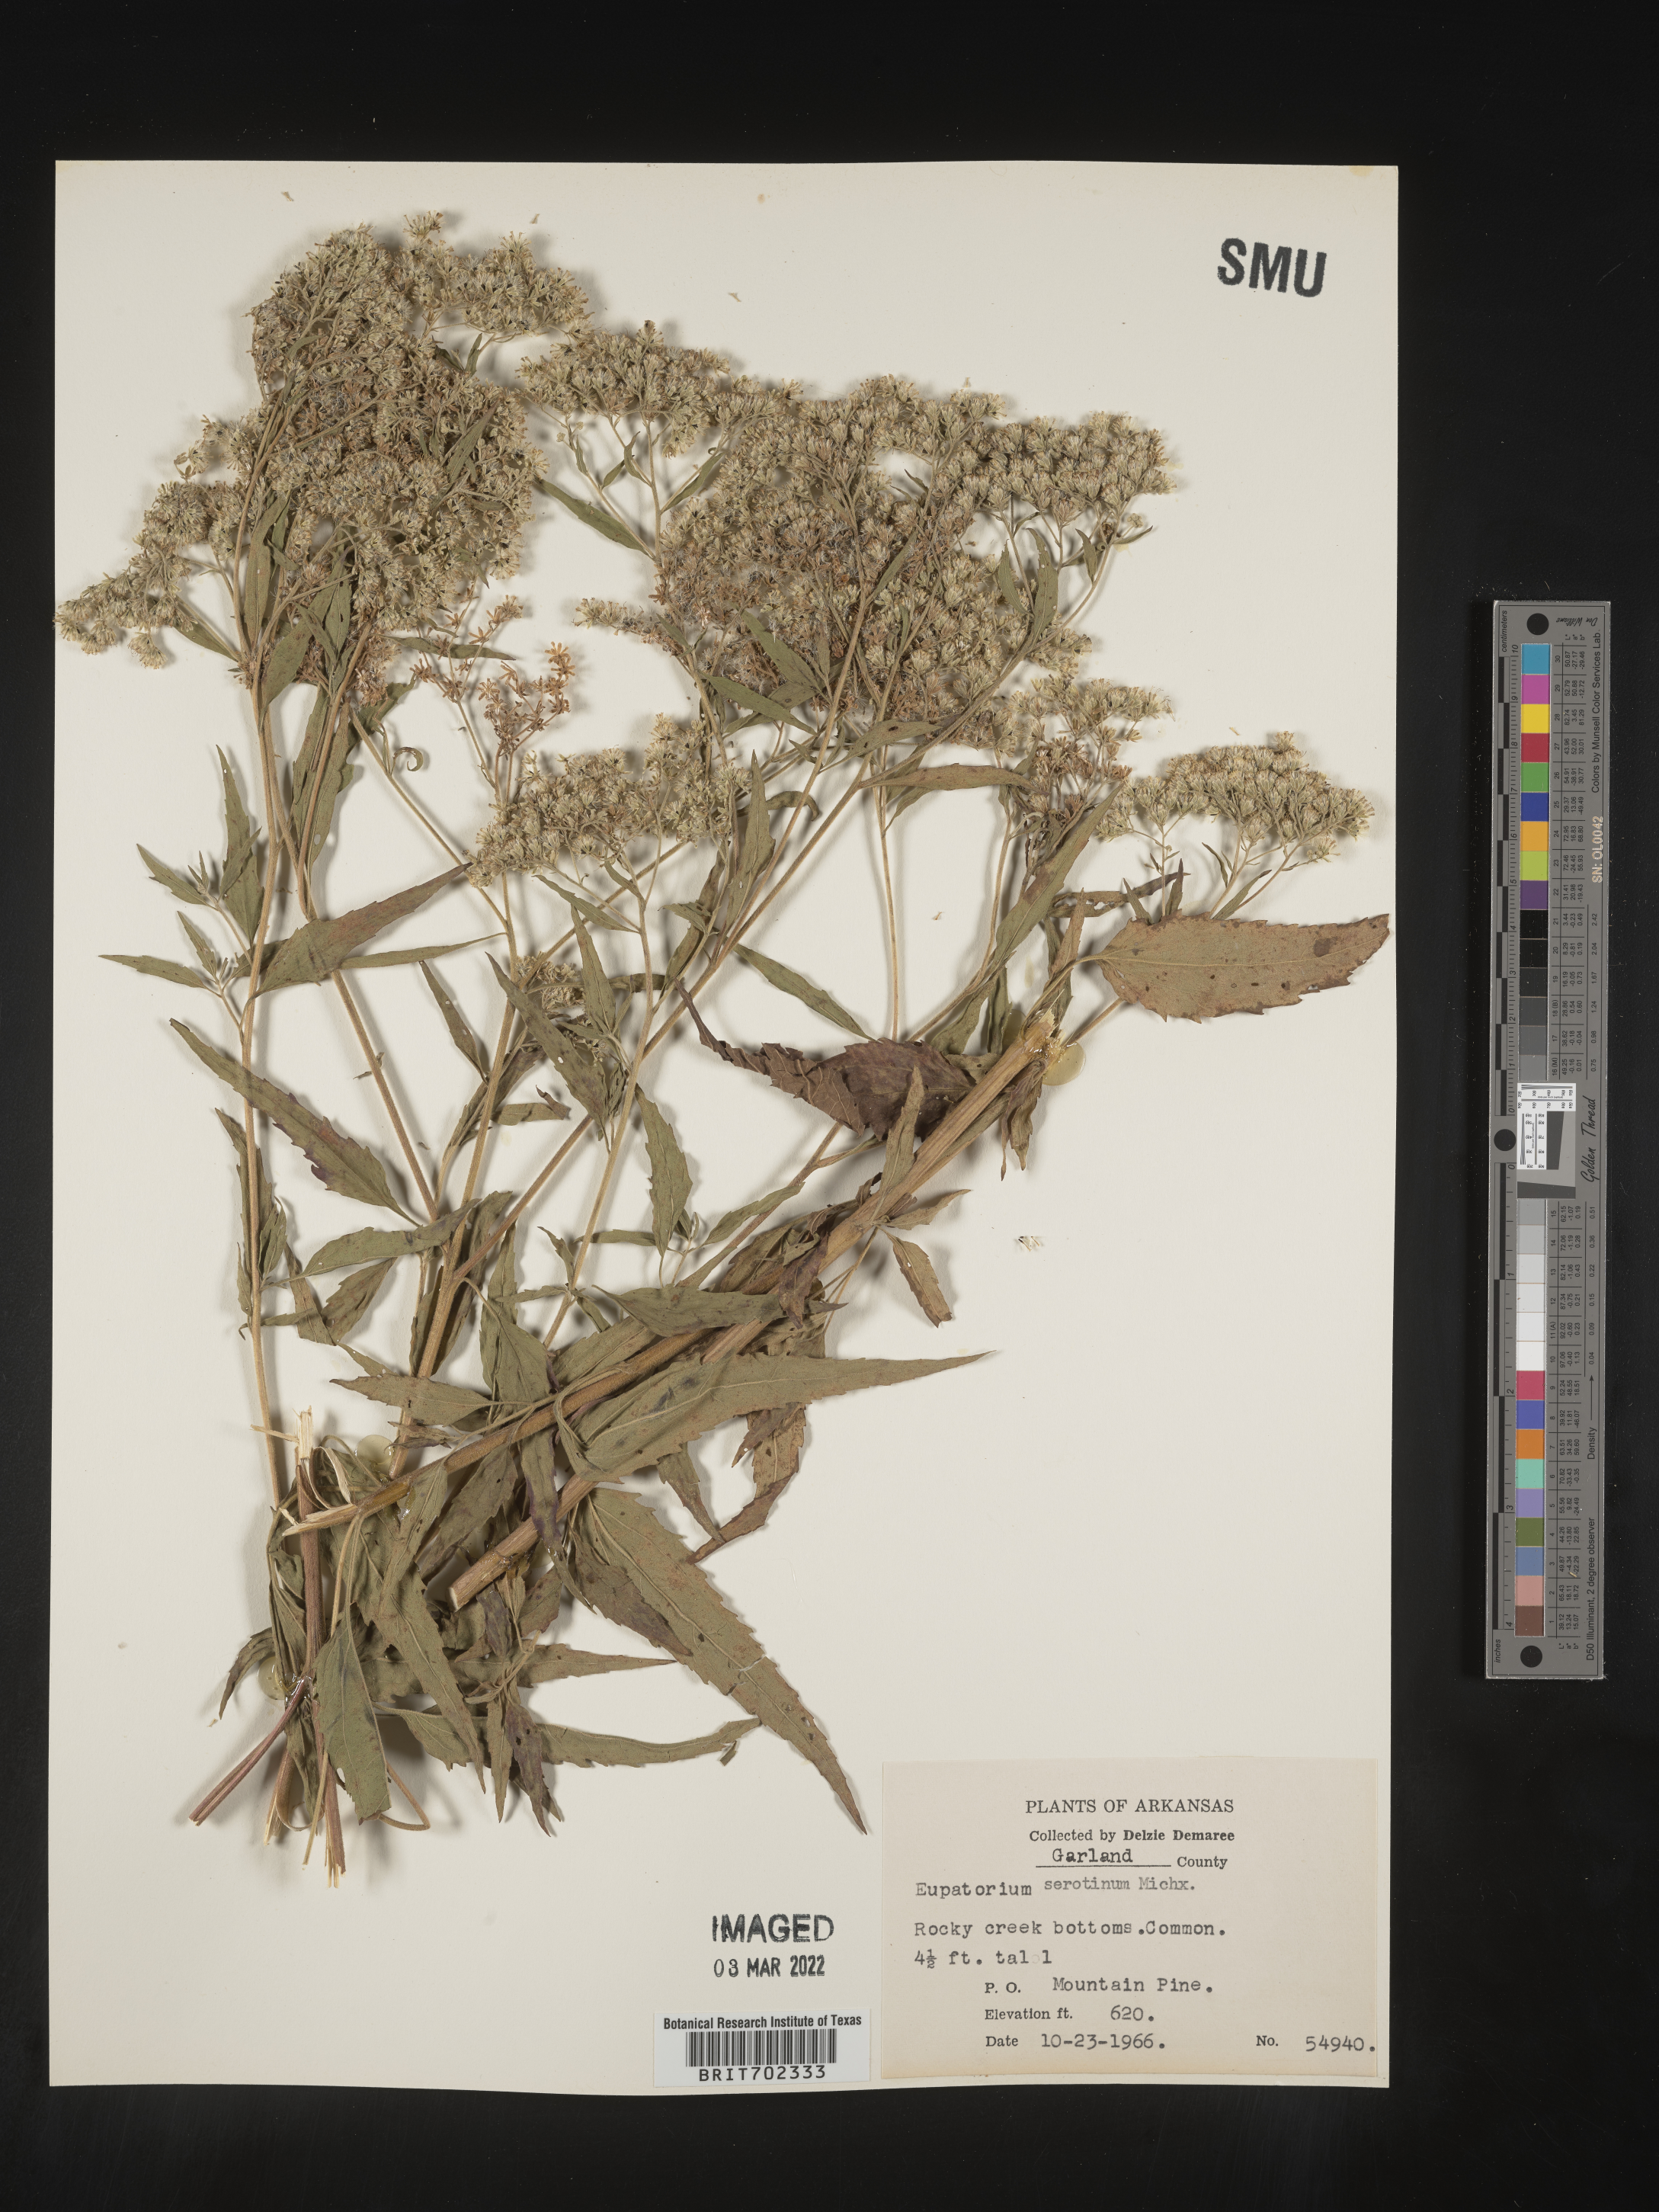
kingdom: Plantae
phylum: Tracheophyta
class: Magnoliopsida
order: Asterales
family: Asteraceae
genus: Eupatorium
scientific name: Eupatorium serotinum
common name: Late boneset
